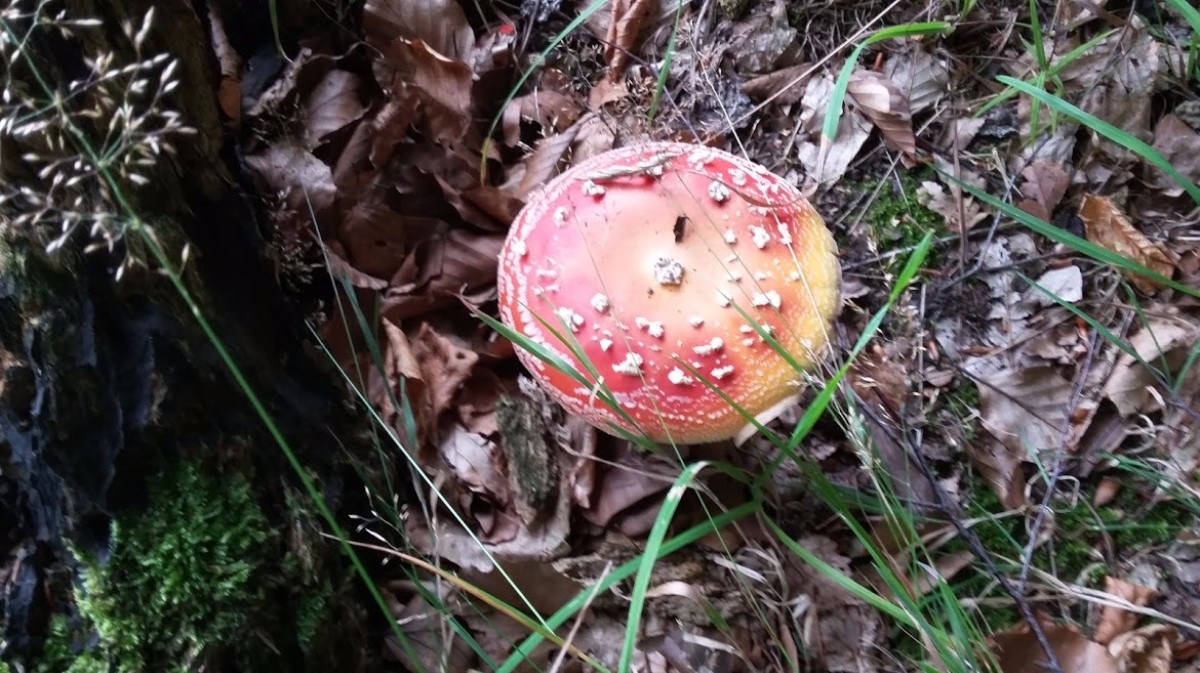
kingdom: Fungi
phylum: Basidiomycota
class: Agaricomycetes
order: Agaricales
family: Amanitaceae
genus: Amanita
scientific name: Amanita muscaria
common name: rød fluesvamp
